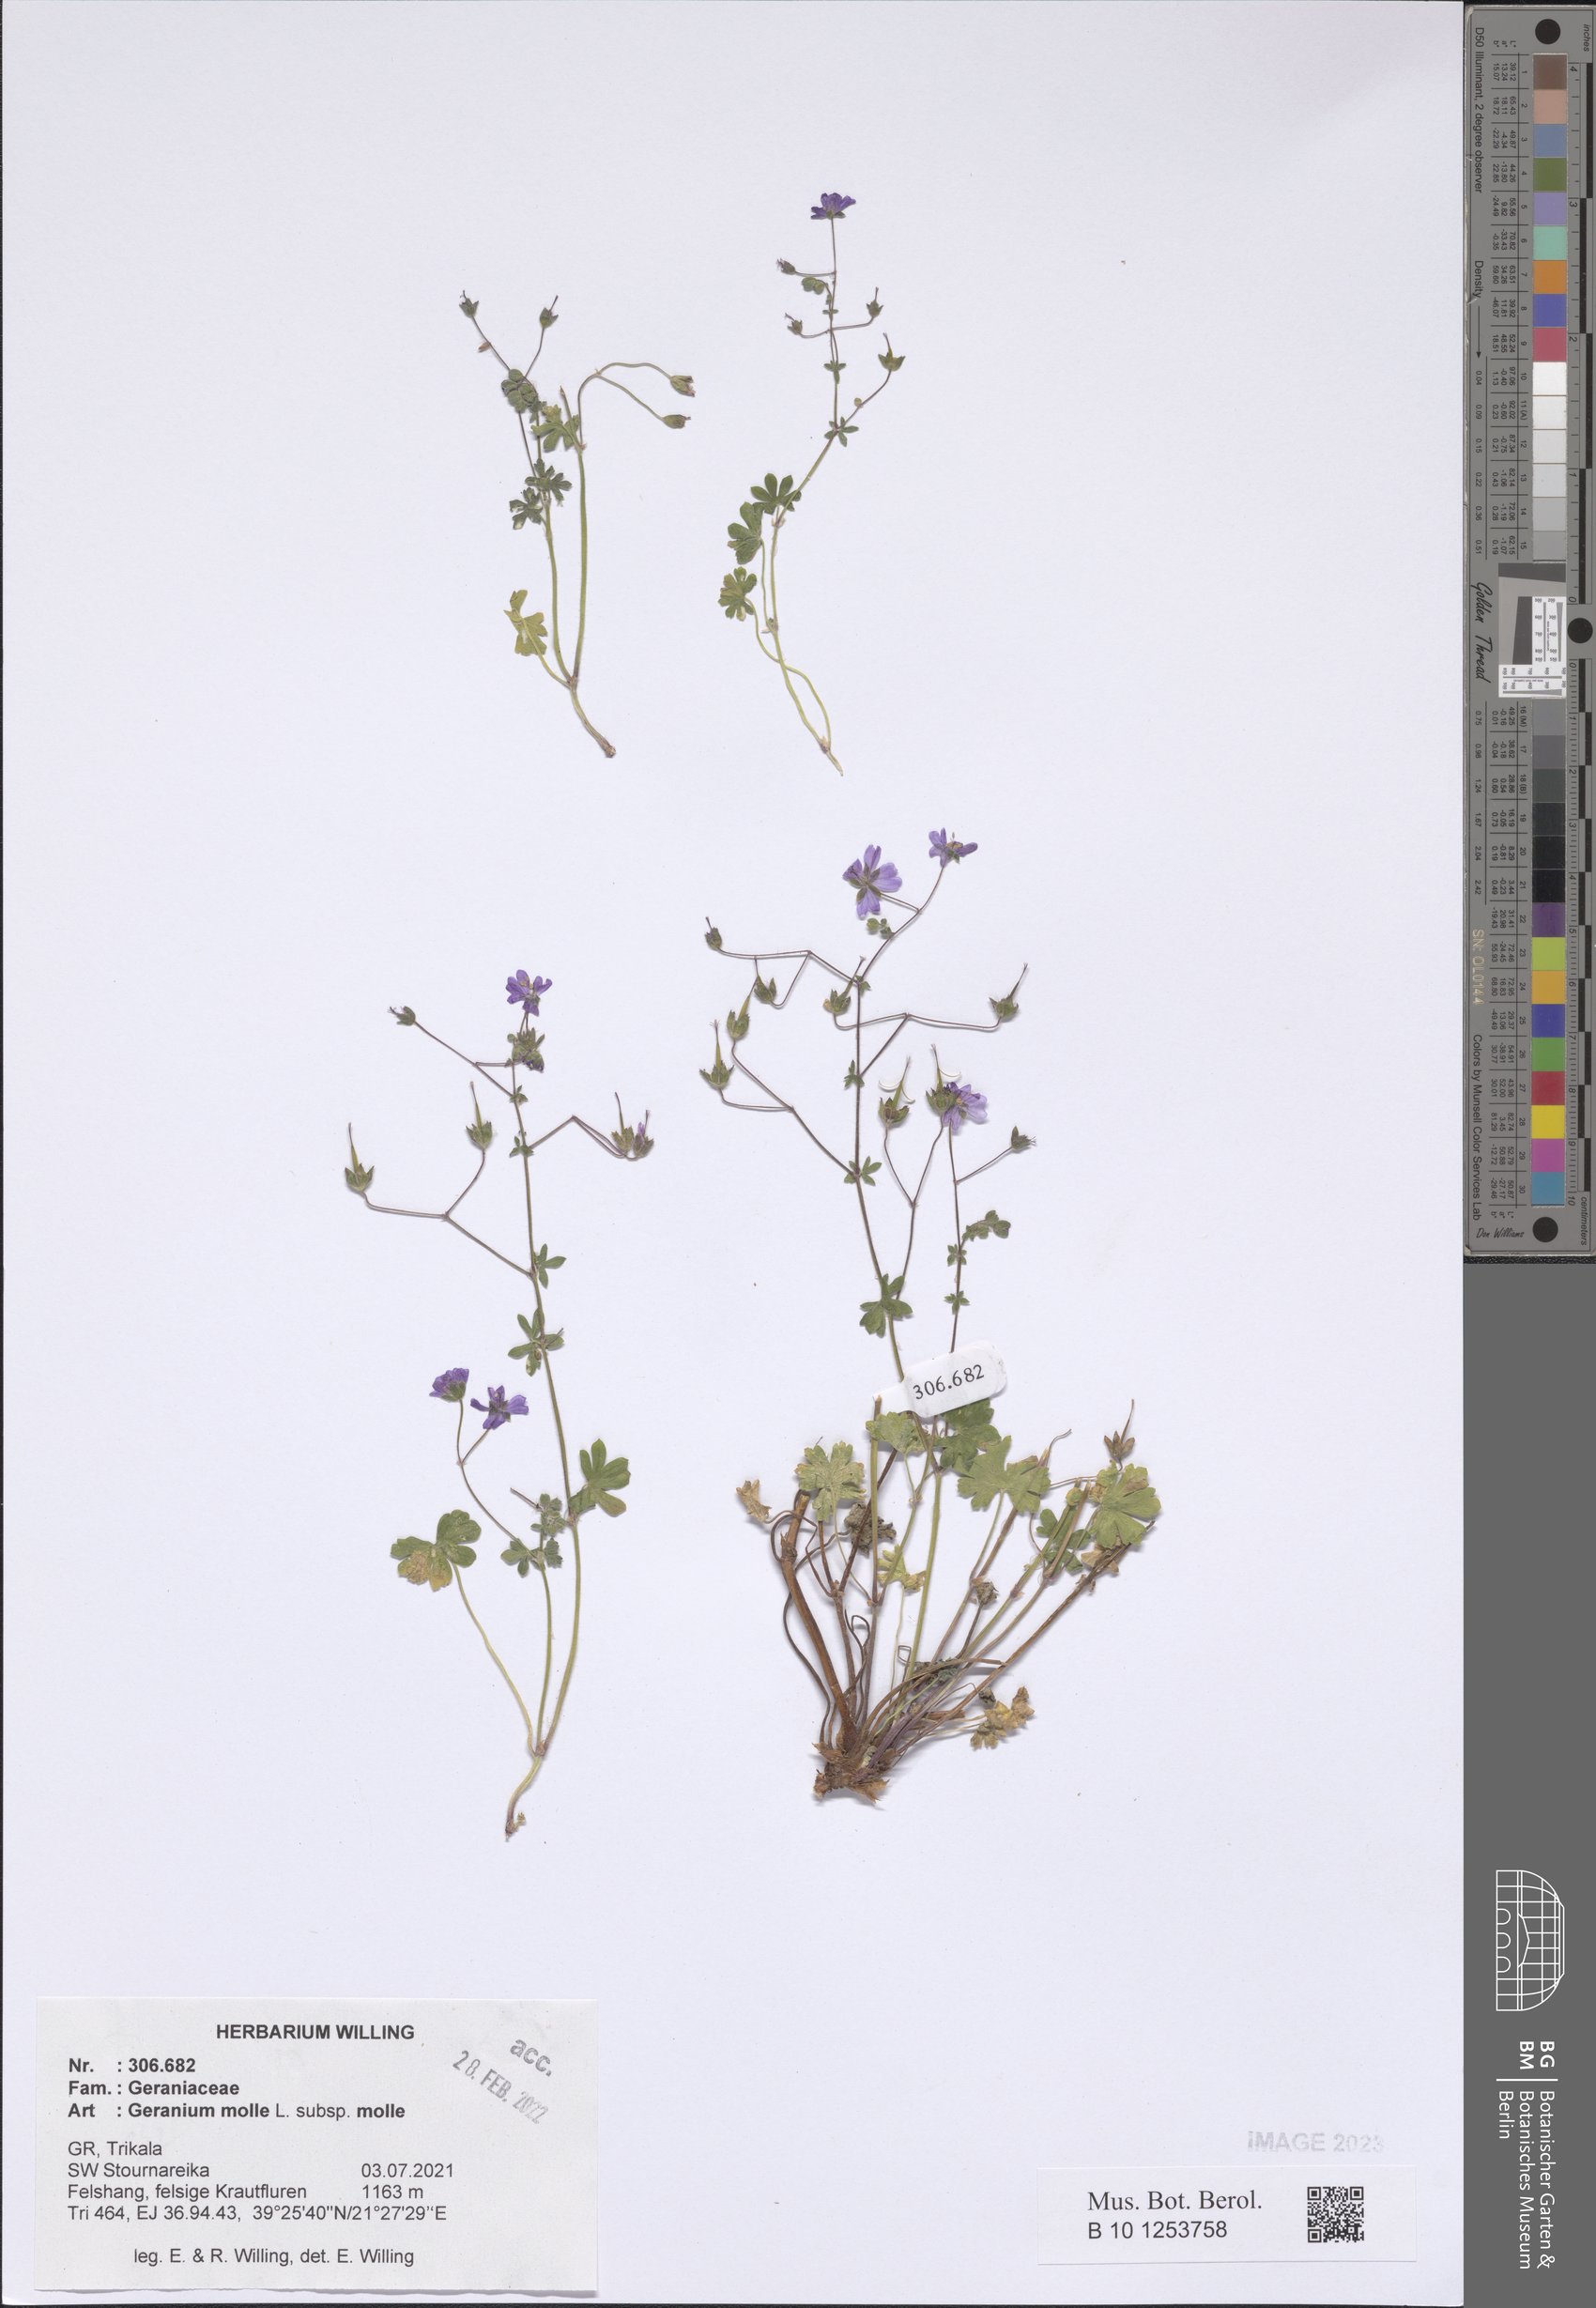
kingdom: Plantae
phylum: Tracheophyta
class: Magnoliopsida
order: Geraniales
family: Geraniaceae
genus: Geranium
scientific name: Geranium molle
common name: Dove's-foot crane's-bill
